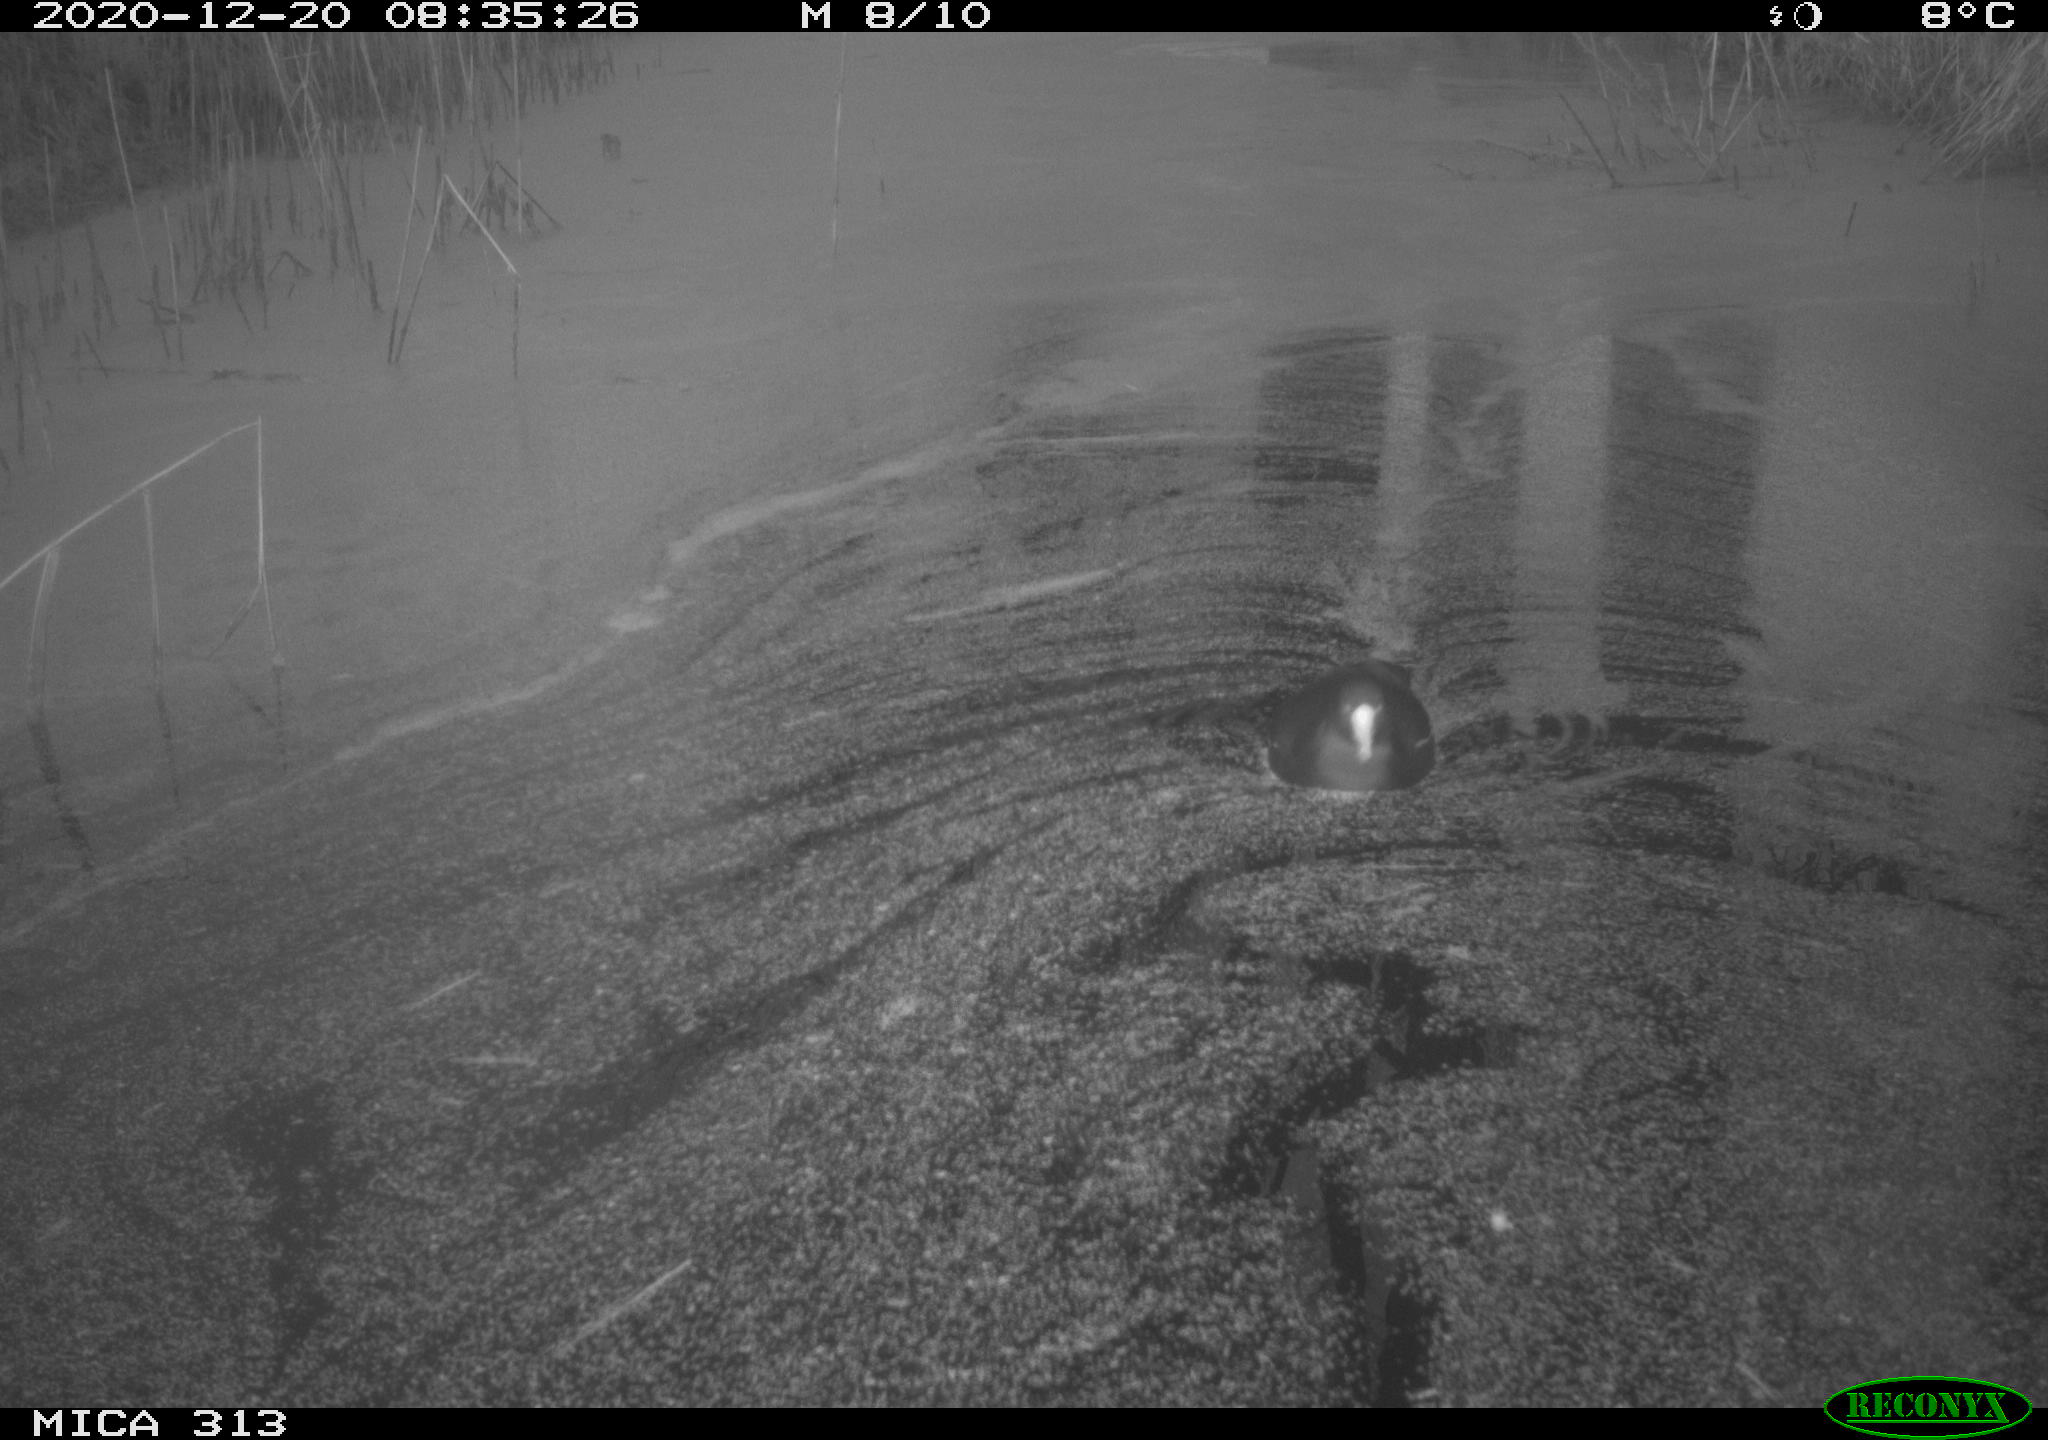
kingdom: Animalia
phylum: Chordata
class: Aves
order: Gruiformes
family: Rallidae
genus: Gallinula
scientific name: Gallinula chloropus
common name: Common moorhen
